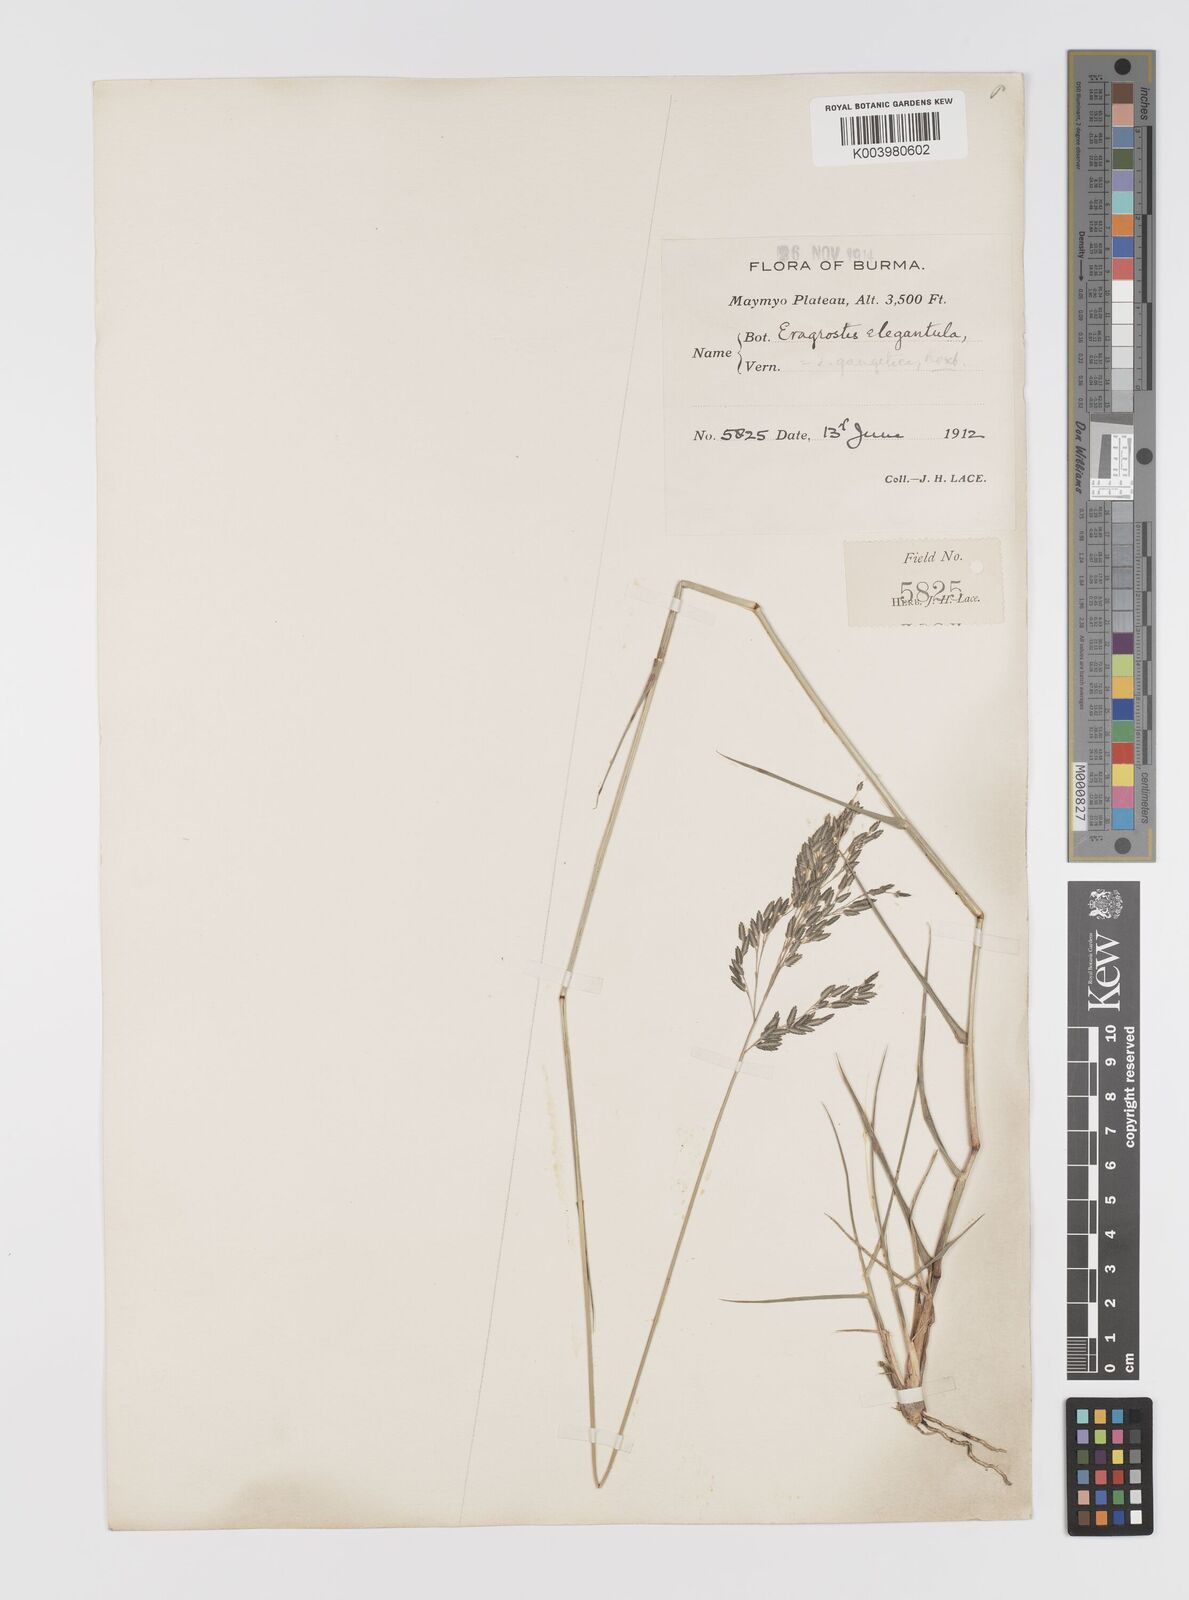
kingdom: Plantae
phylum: Tracheophyta
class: Liliopsida
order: Poales
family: Poaceae
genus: Eragrostis
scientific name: Eragrostis atrovirens
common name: Thalia lovegrass
